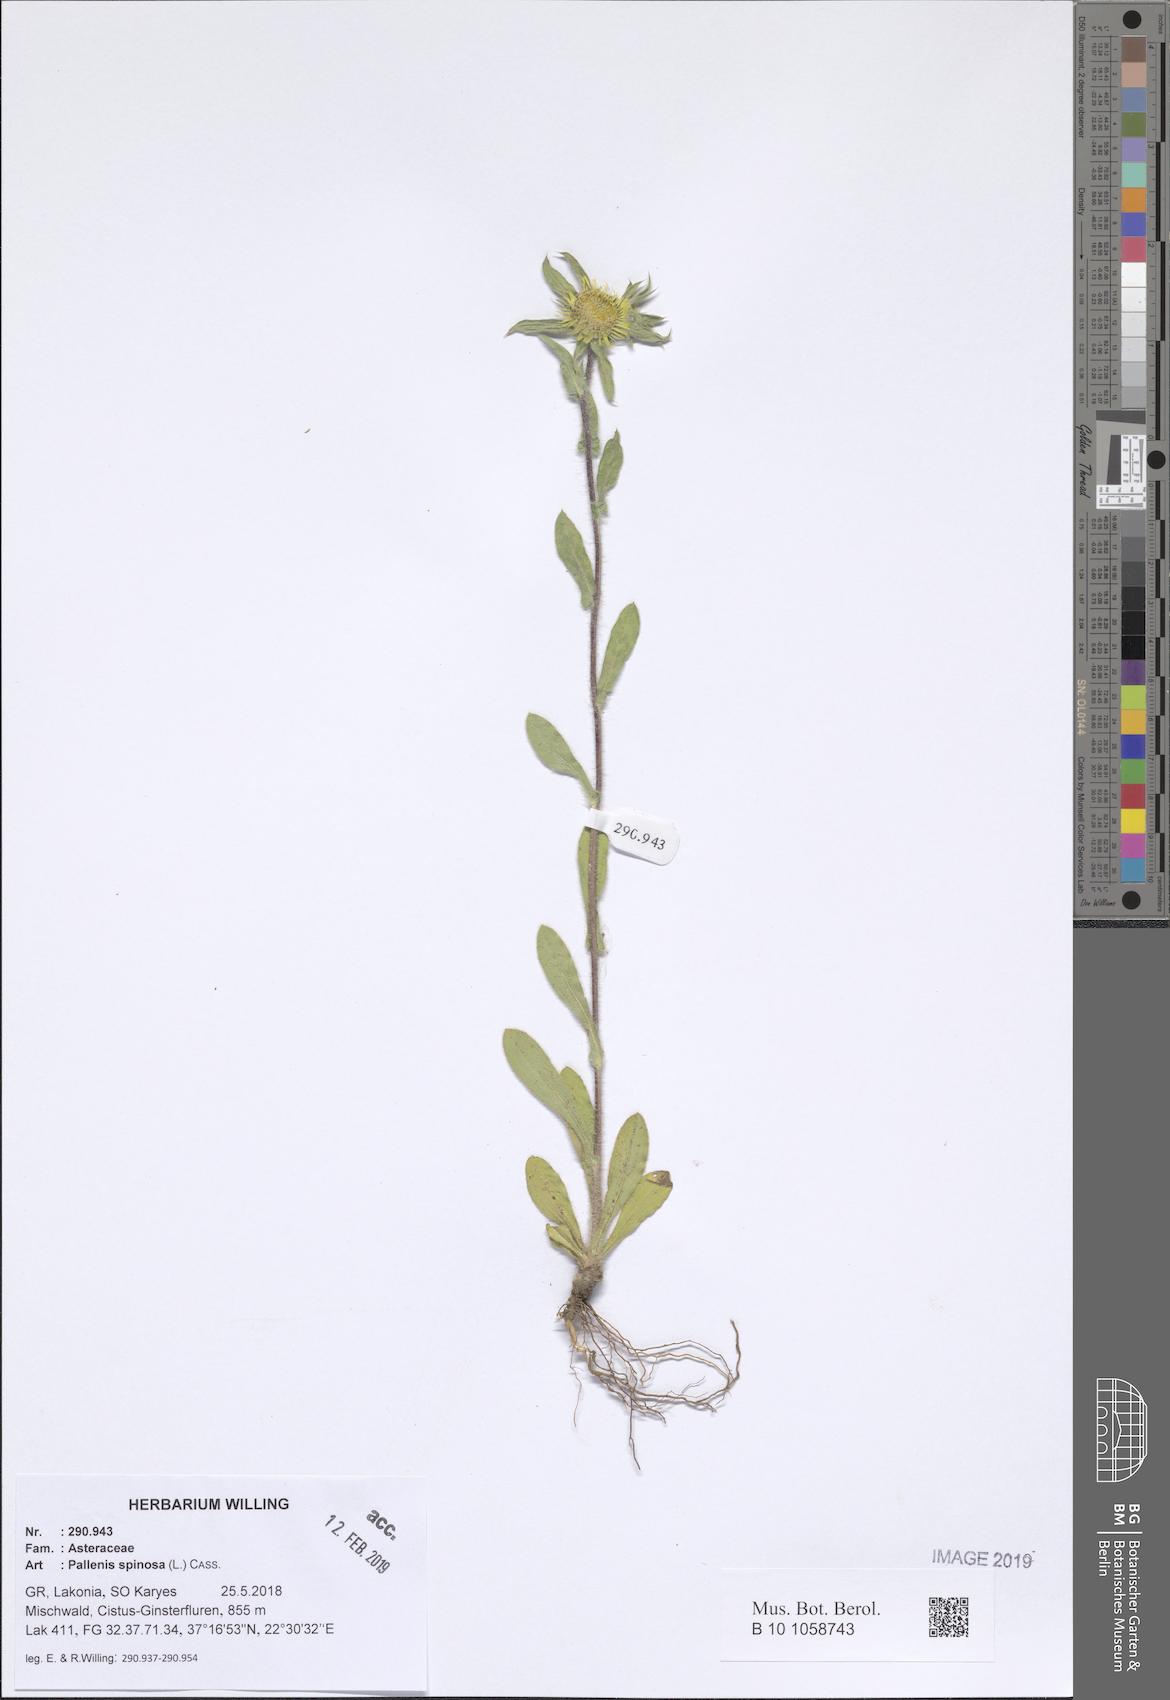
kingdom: Plantae
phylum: Tracheophyta
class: Magnoliopsida
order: Asterales
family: Asteraceae
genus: Pallenis
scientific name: Pallenis spinosa
